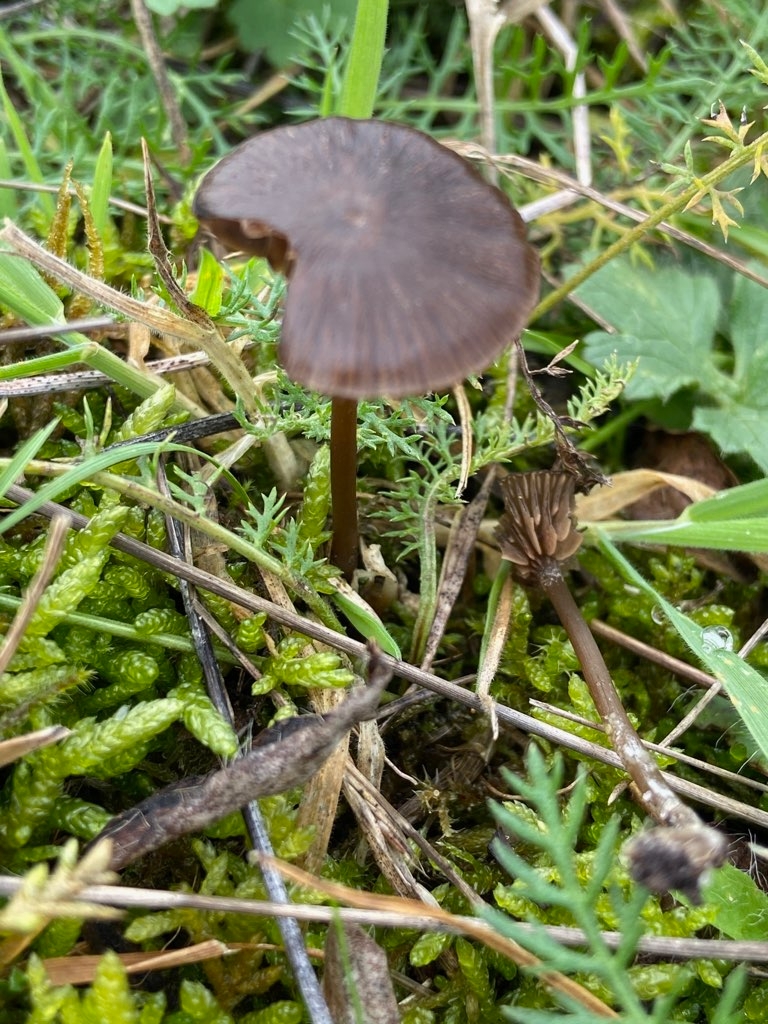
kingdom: Fungi
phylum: Basidiomycota
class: Agaricomycetes
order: Agaricales
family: Entolomataceae
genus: Entoloma
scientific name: Entoloma
